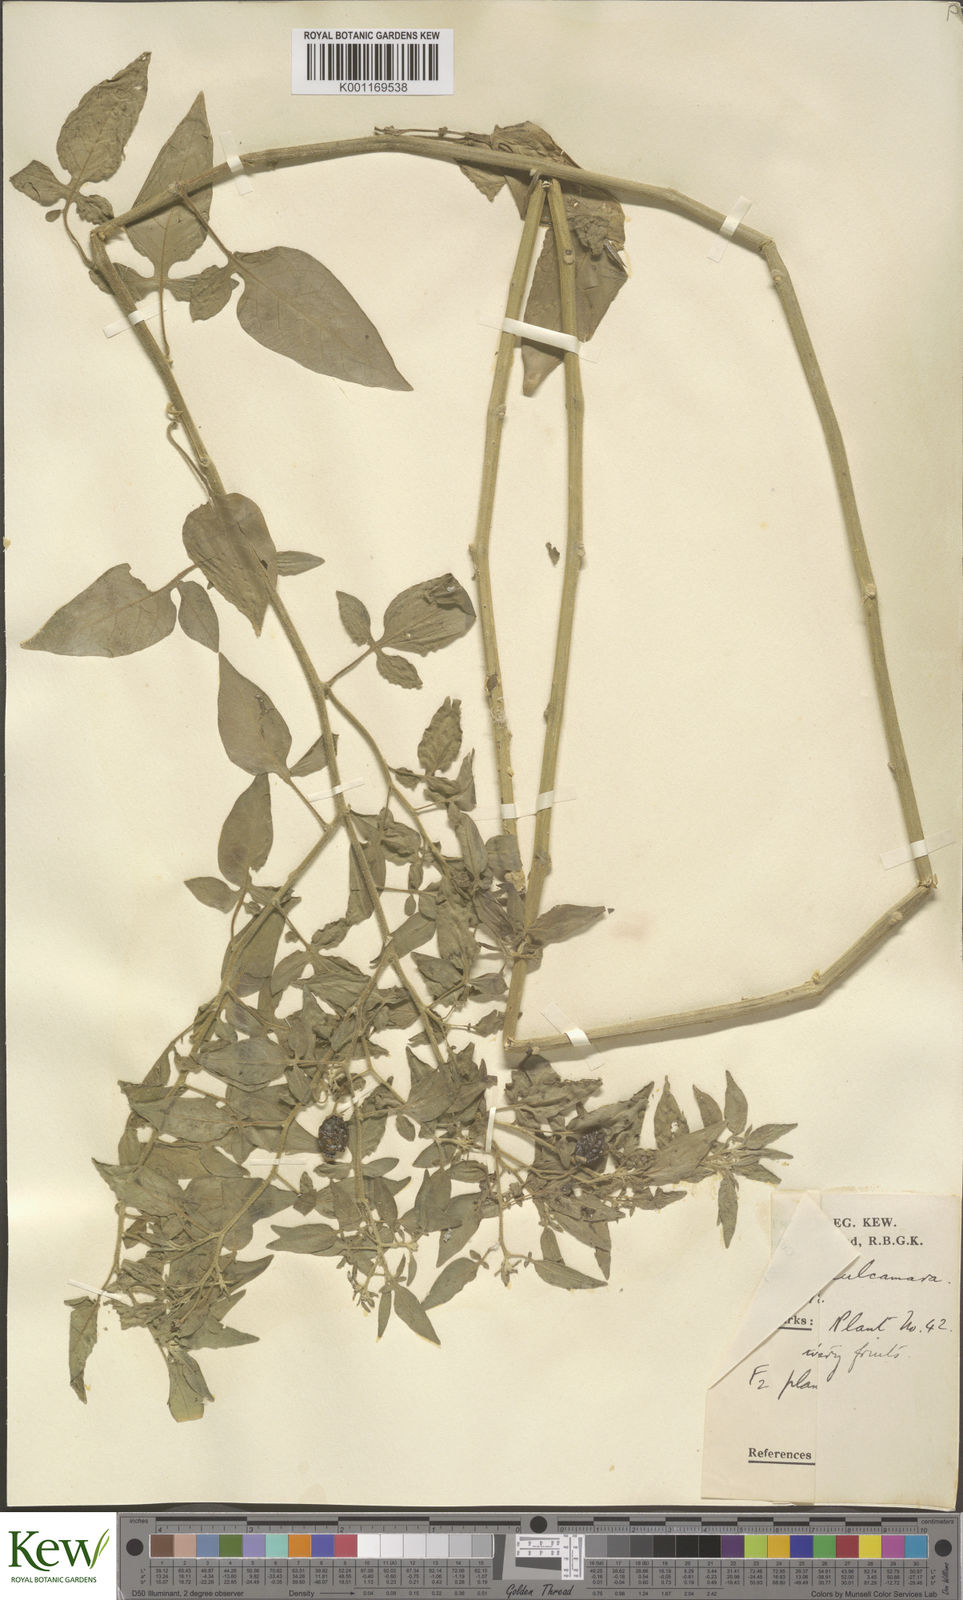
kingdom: Plantae
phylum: Tracheophyta
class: Magnoliopsida
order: Solanales
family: Solanaceae
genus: Solanum
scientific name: Solanum dulcamara
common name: Climbing nightshade
